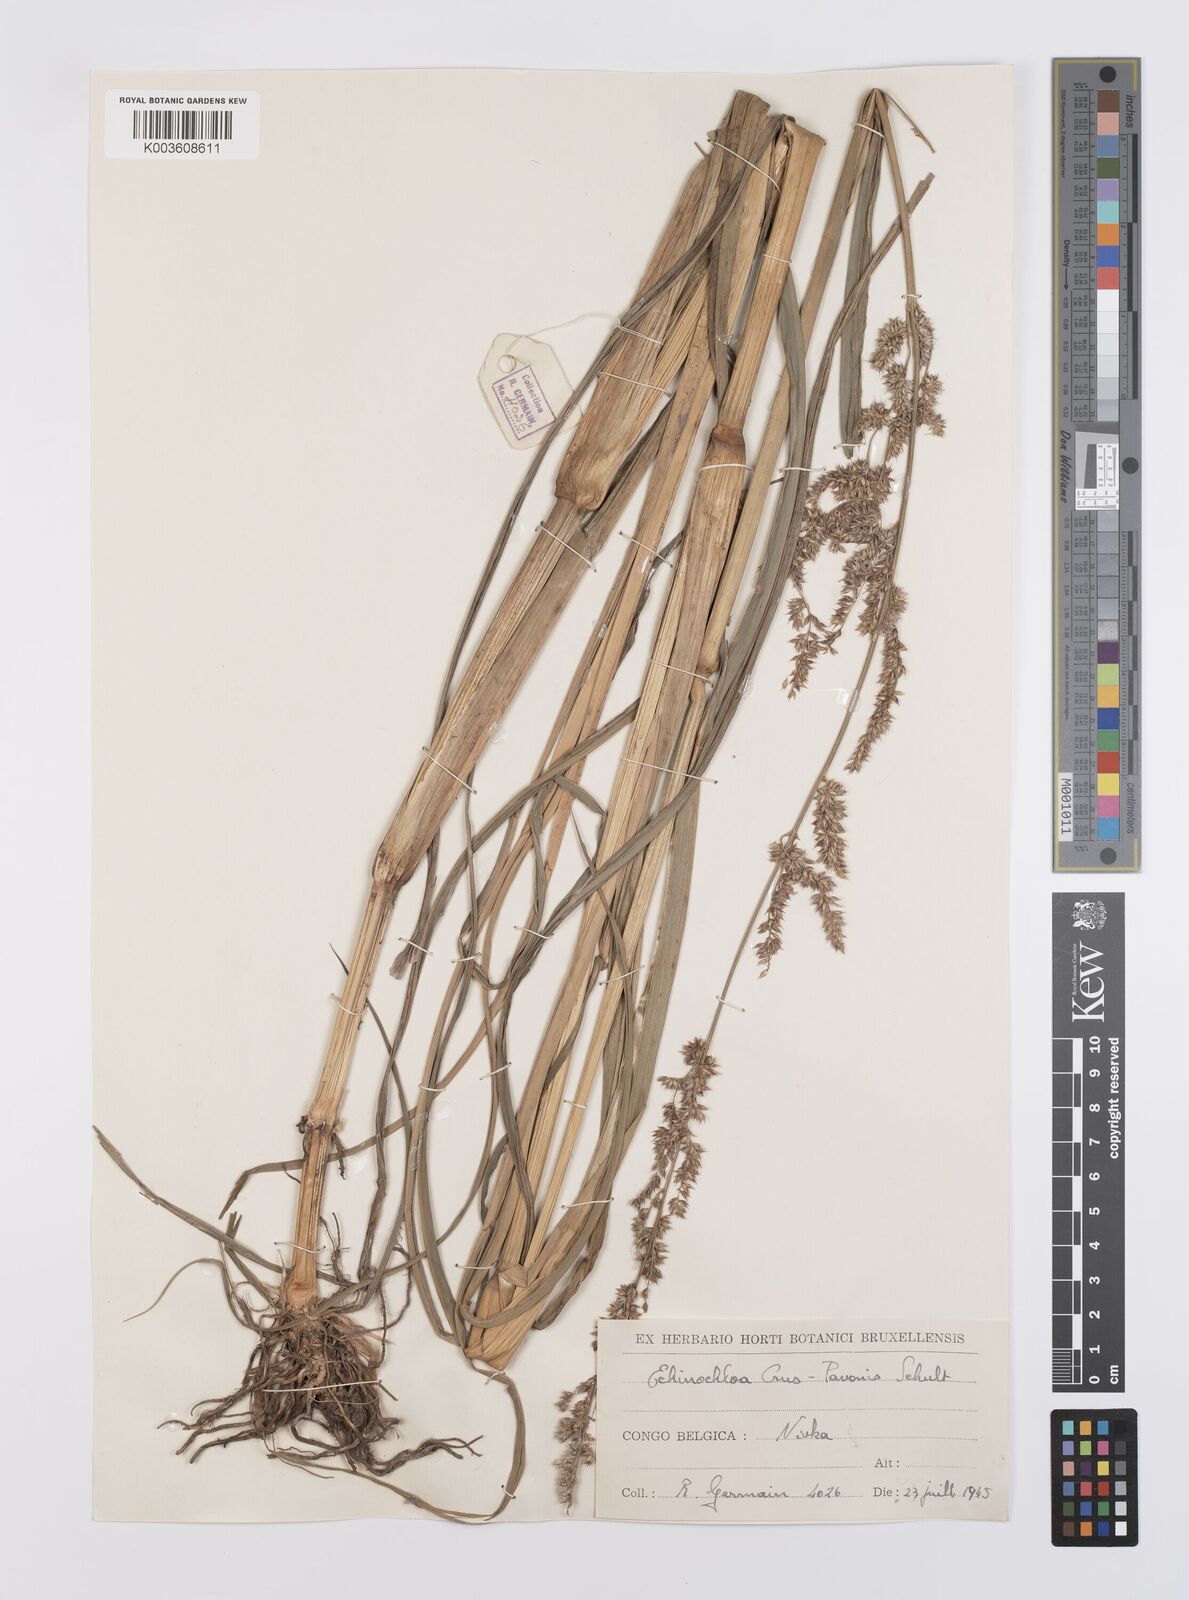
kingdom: Plantae
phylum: Tracheophyta
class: Liliopsida
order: Poales
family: Poaceae
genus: Echinochloa
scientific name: Echinochloa crus-pavonis
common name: Gulf cockspur grass
